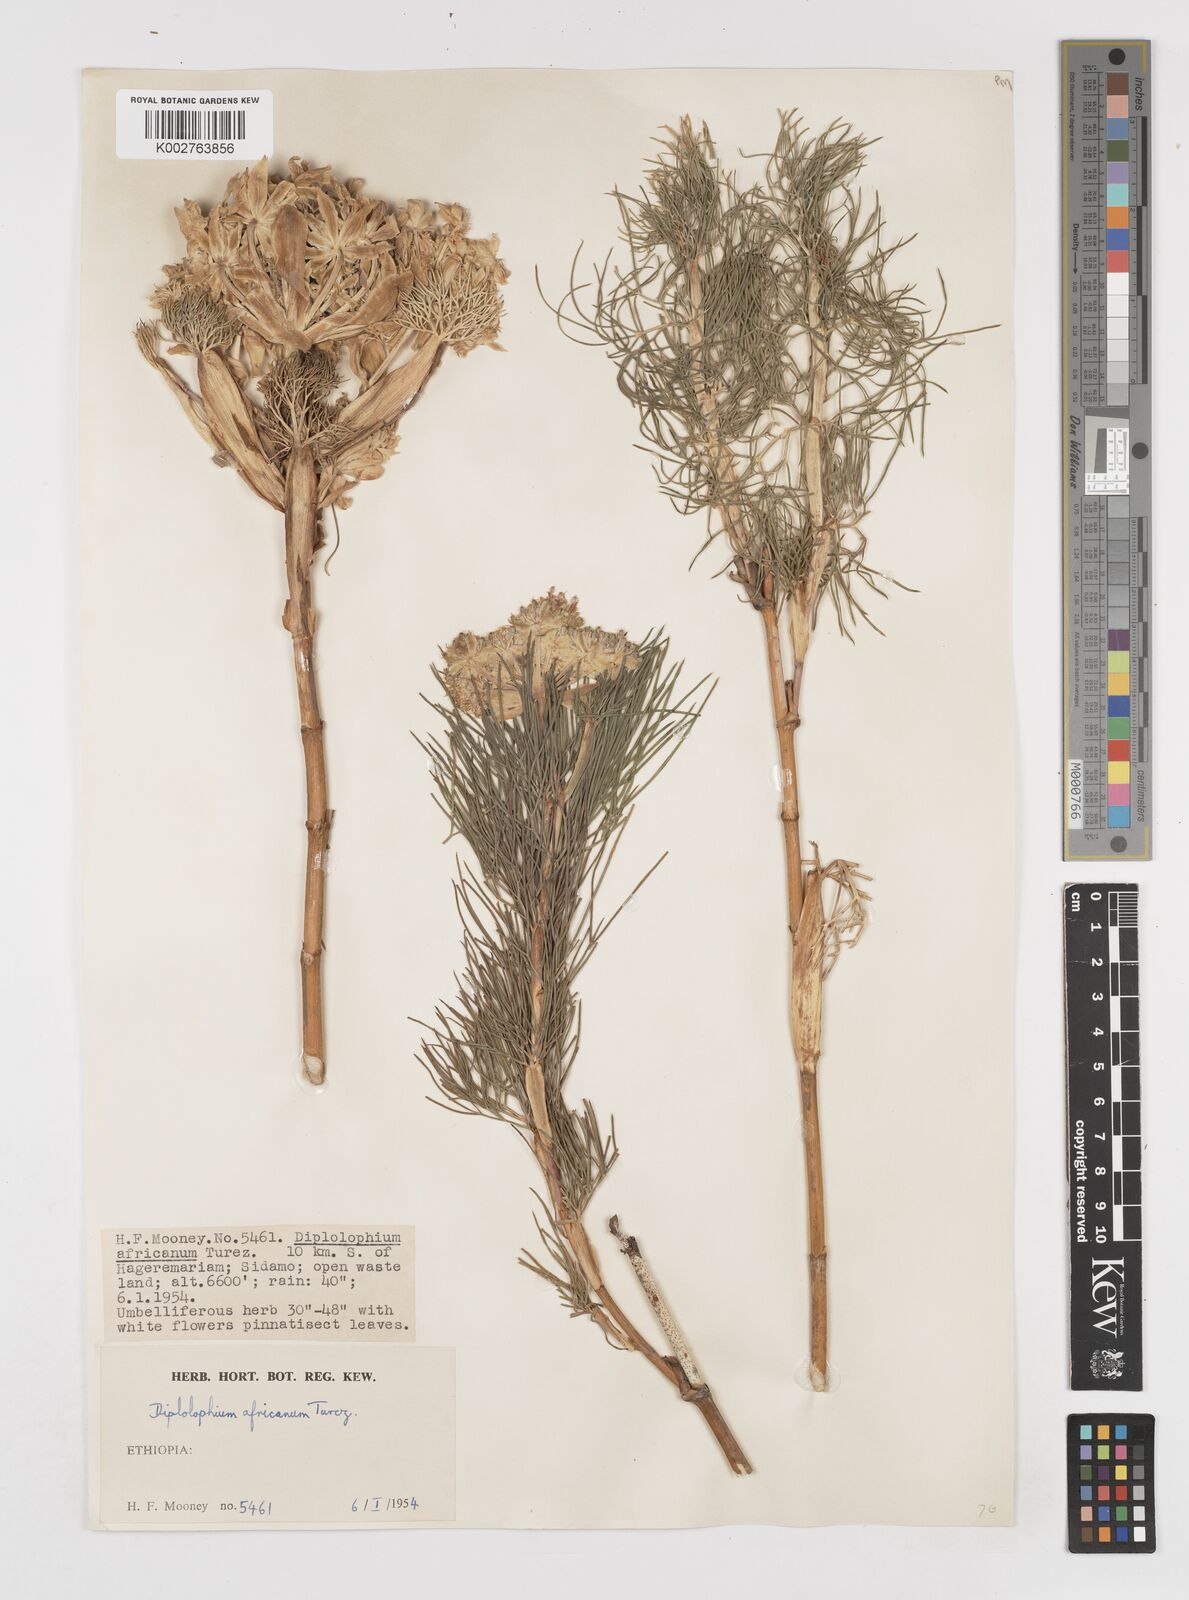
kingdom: Plantae
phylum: Tracheophyta
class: Magnoliopsida
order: Apiales
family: Apiaceae
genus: Diplolophium
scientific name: Diplolophium africanum
